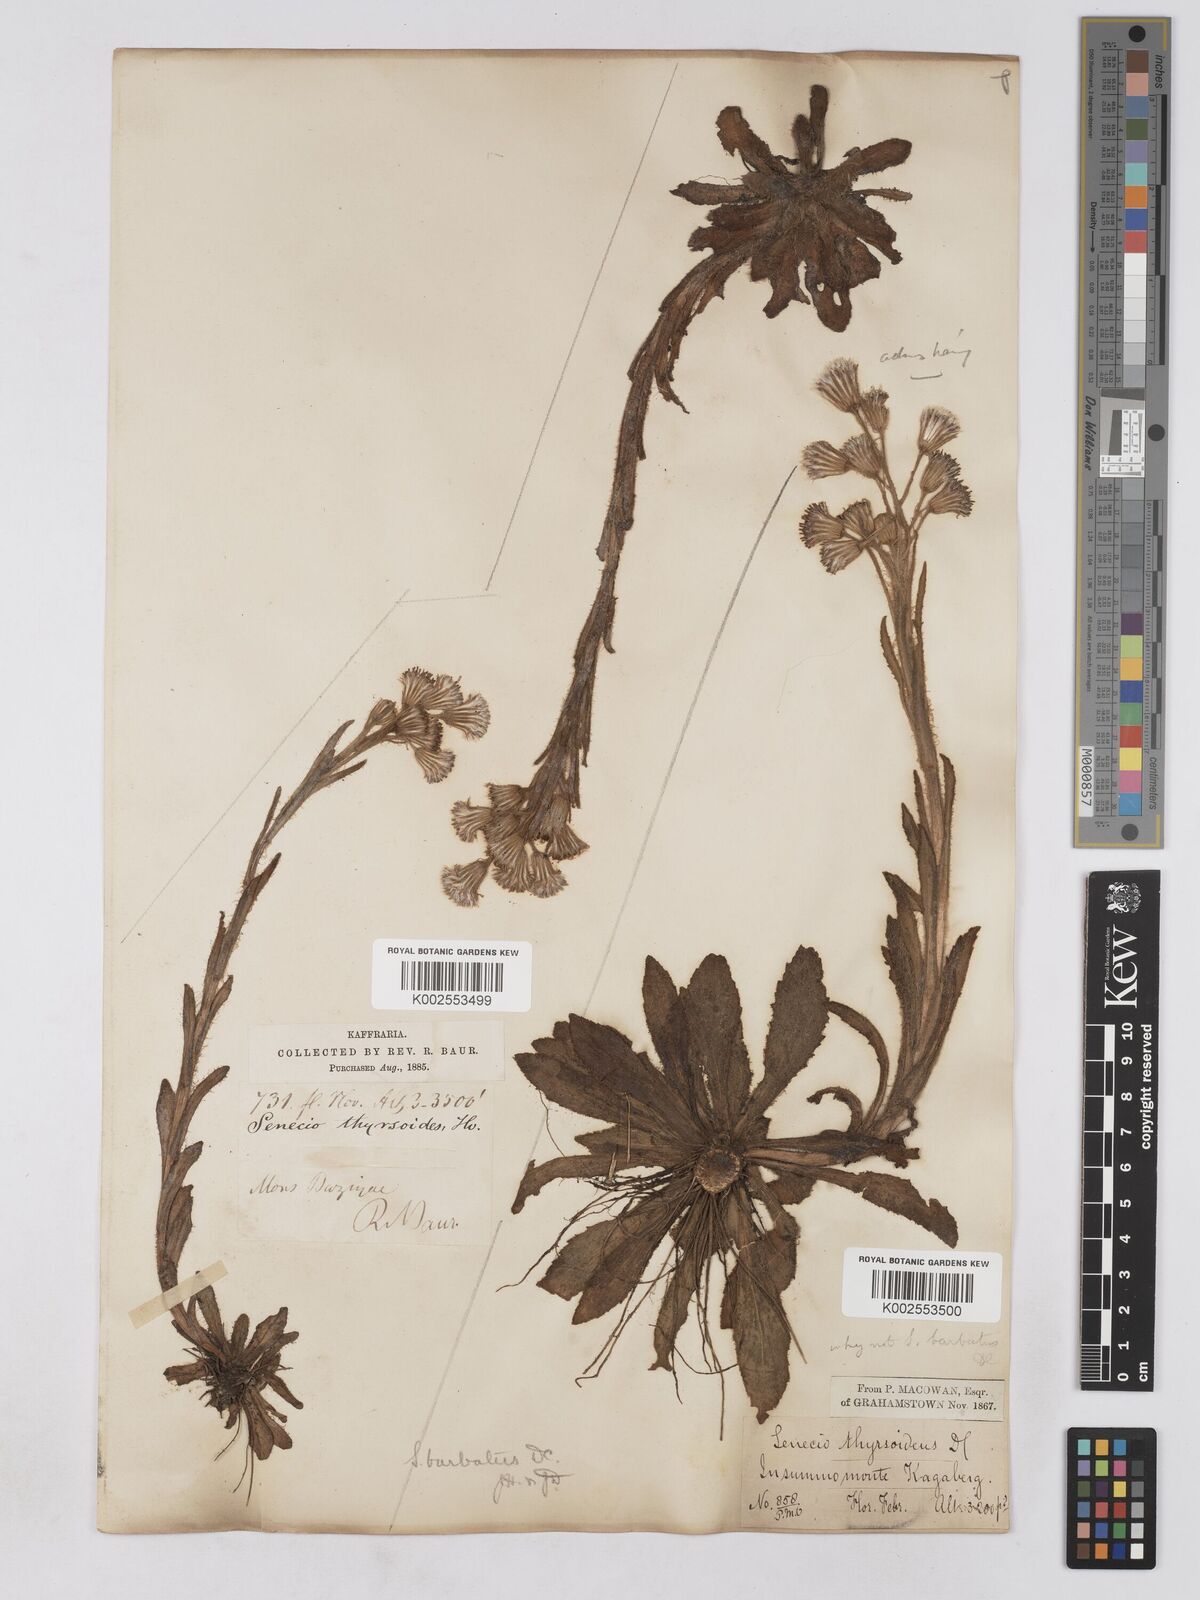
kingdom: Plantae
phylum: Tracheophyta
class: Magnoliopsida
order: Asterales
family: Asteraceae
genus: Senecio
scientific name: Senecio barbatus
